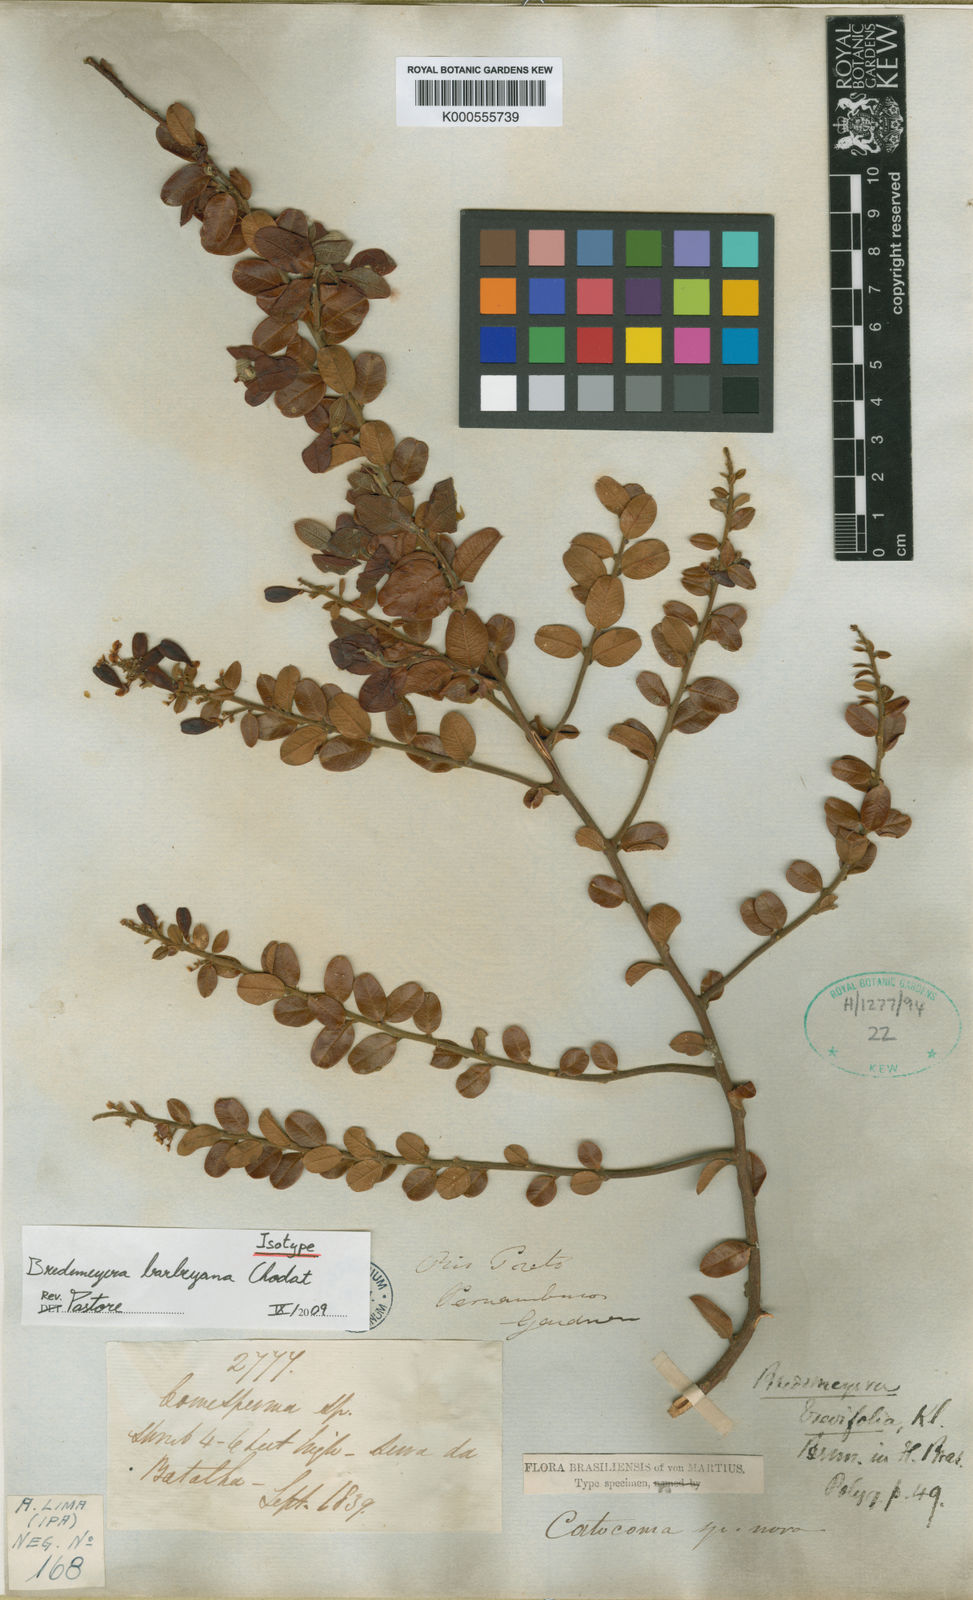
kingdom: Plantae
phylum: Tracheophyta
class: Magnoliopsida
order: Fabales
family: Polygalaceae
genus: Bredemeyera
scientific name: Bredemeyera brevifolia
